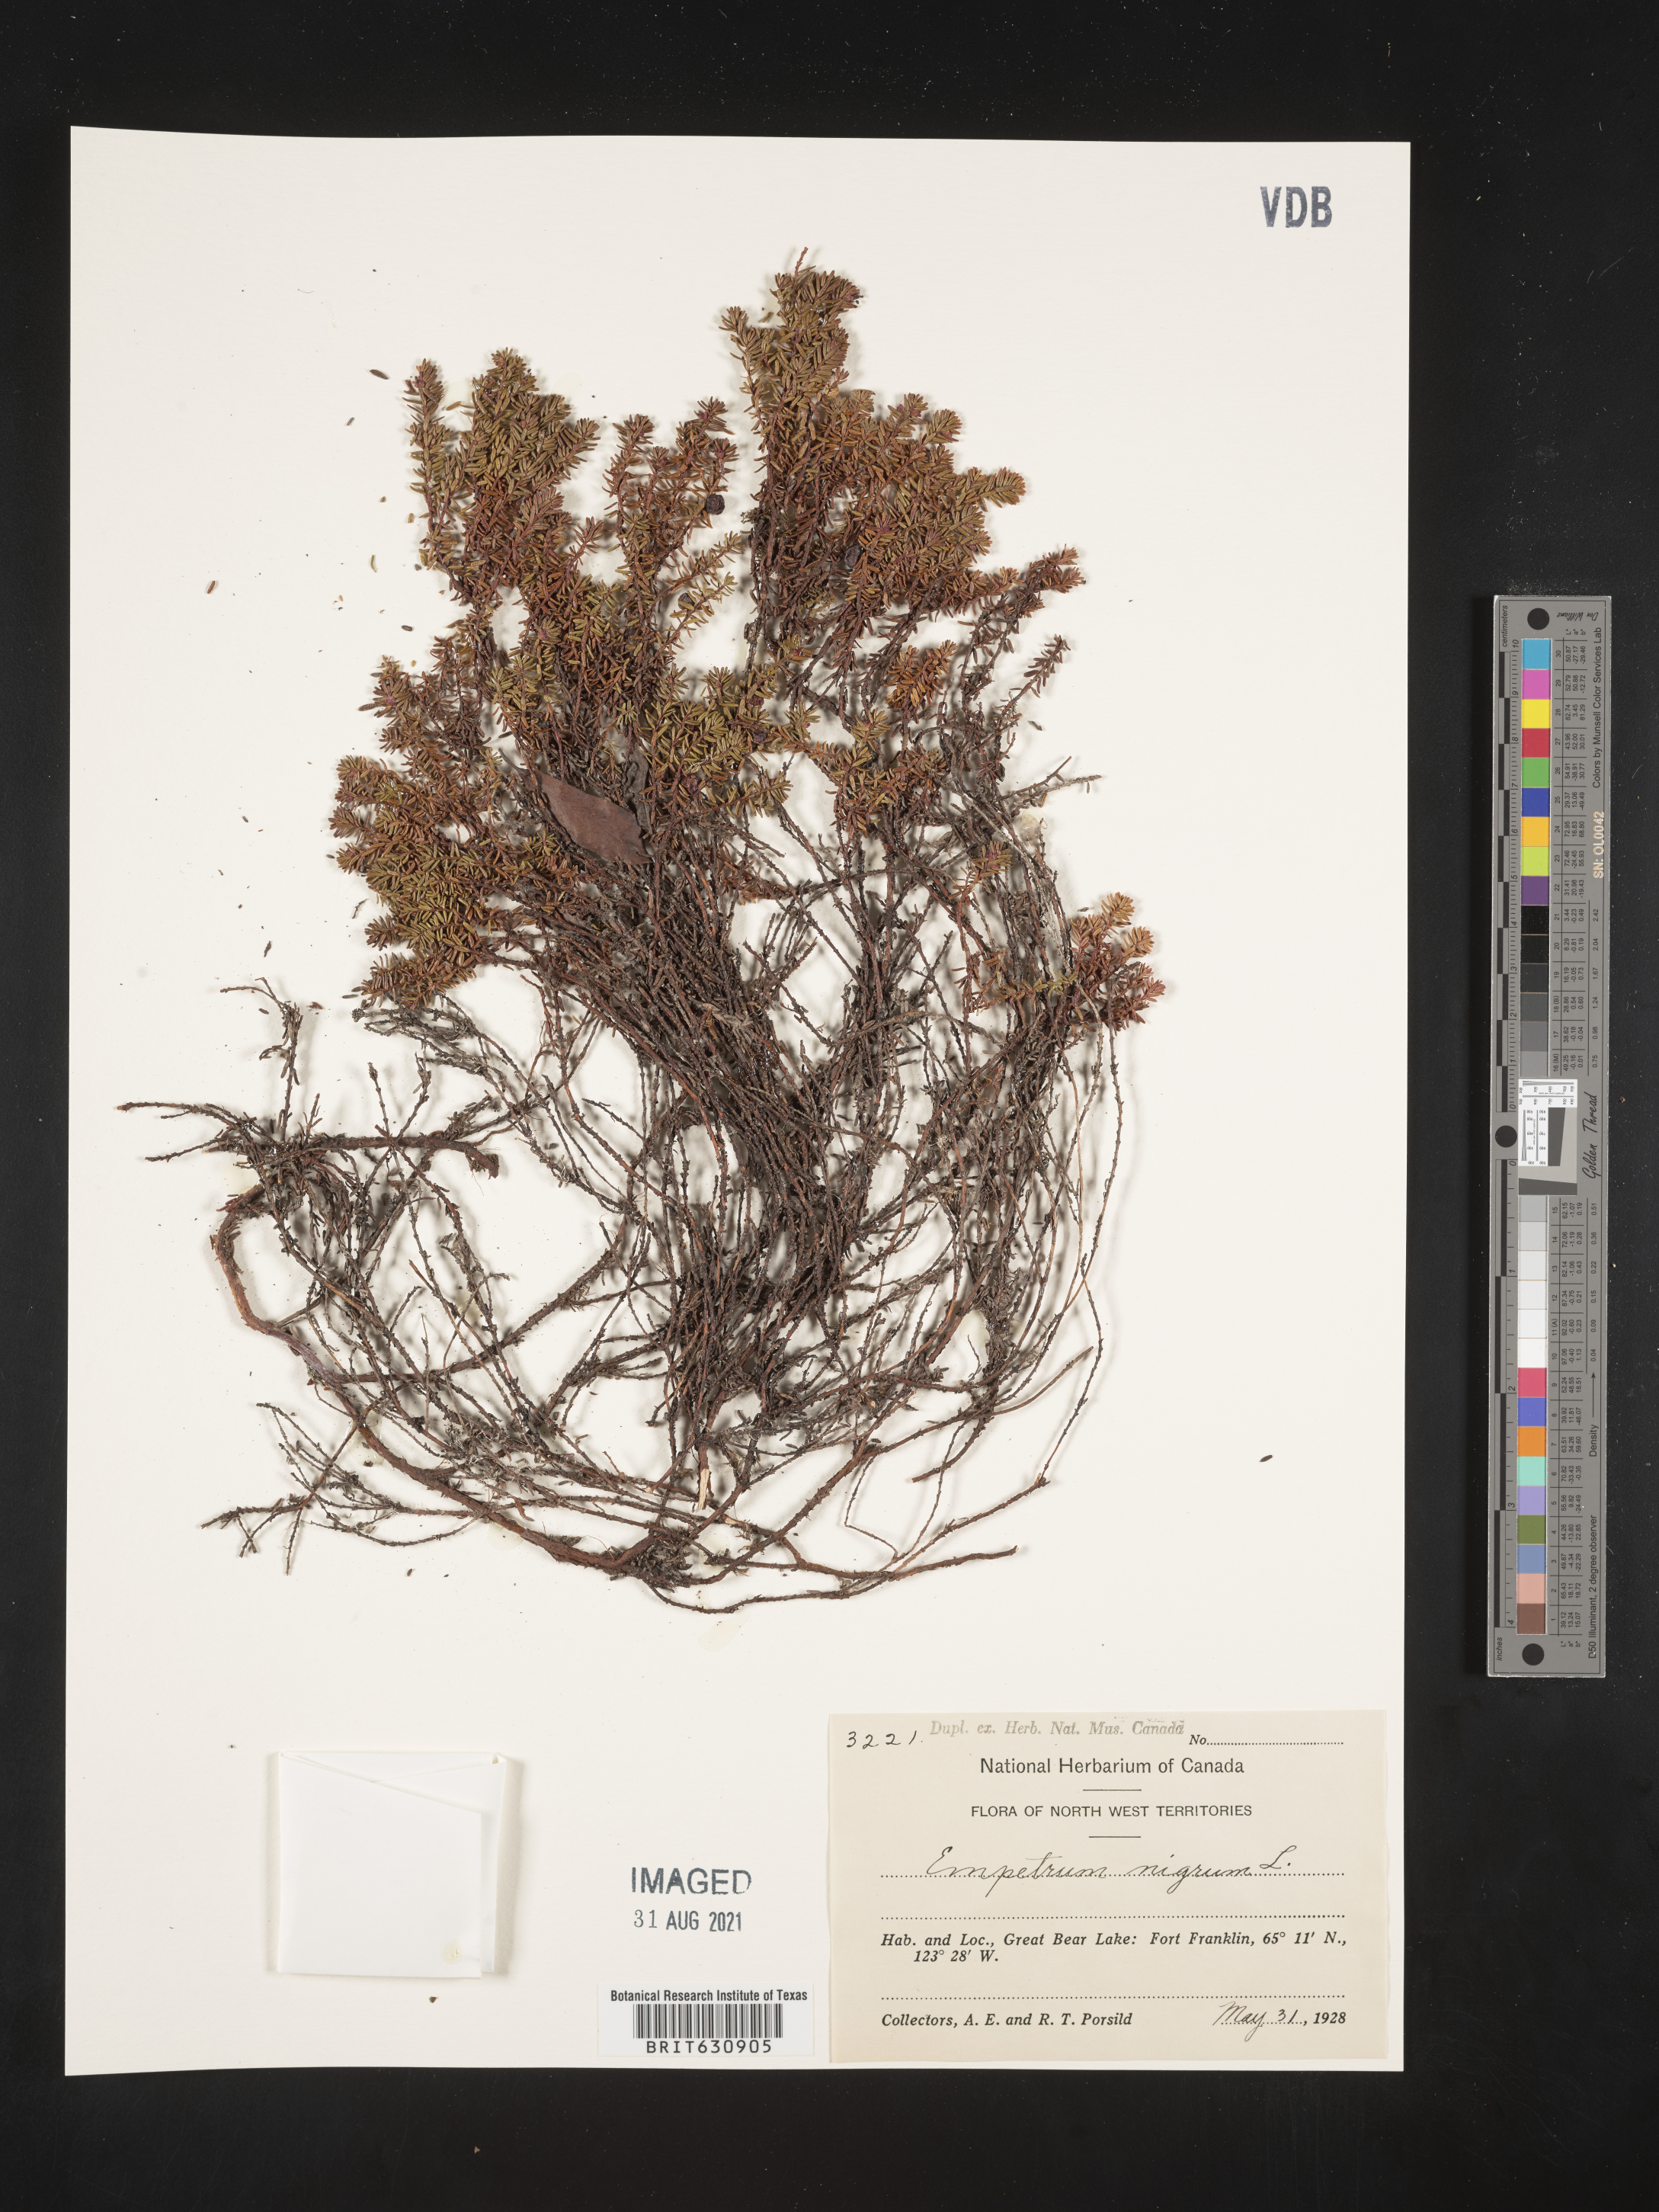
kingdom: Plantae
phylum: Tracheophyta
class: Magnoliopsida
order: Ericales
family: Ericaceae
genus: Empetrum
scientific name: Empetrum
